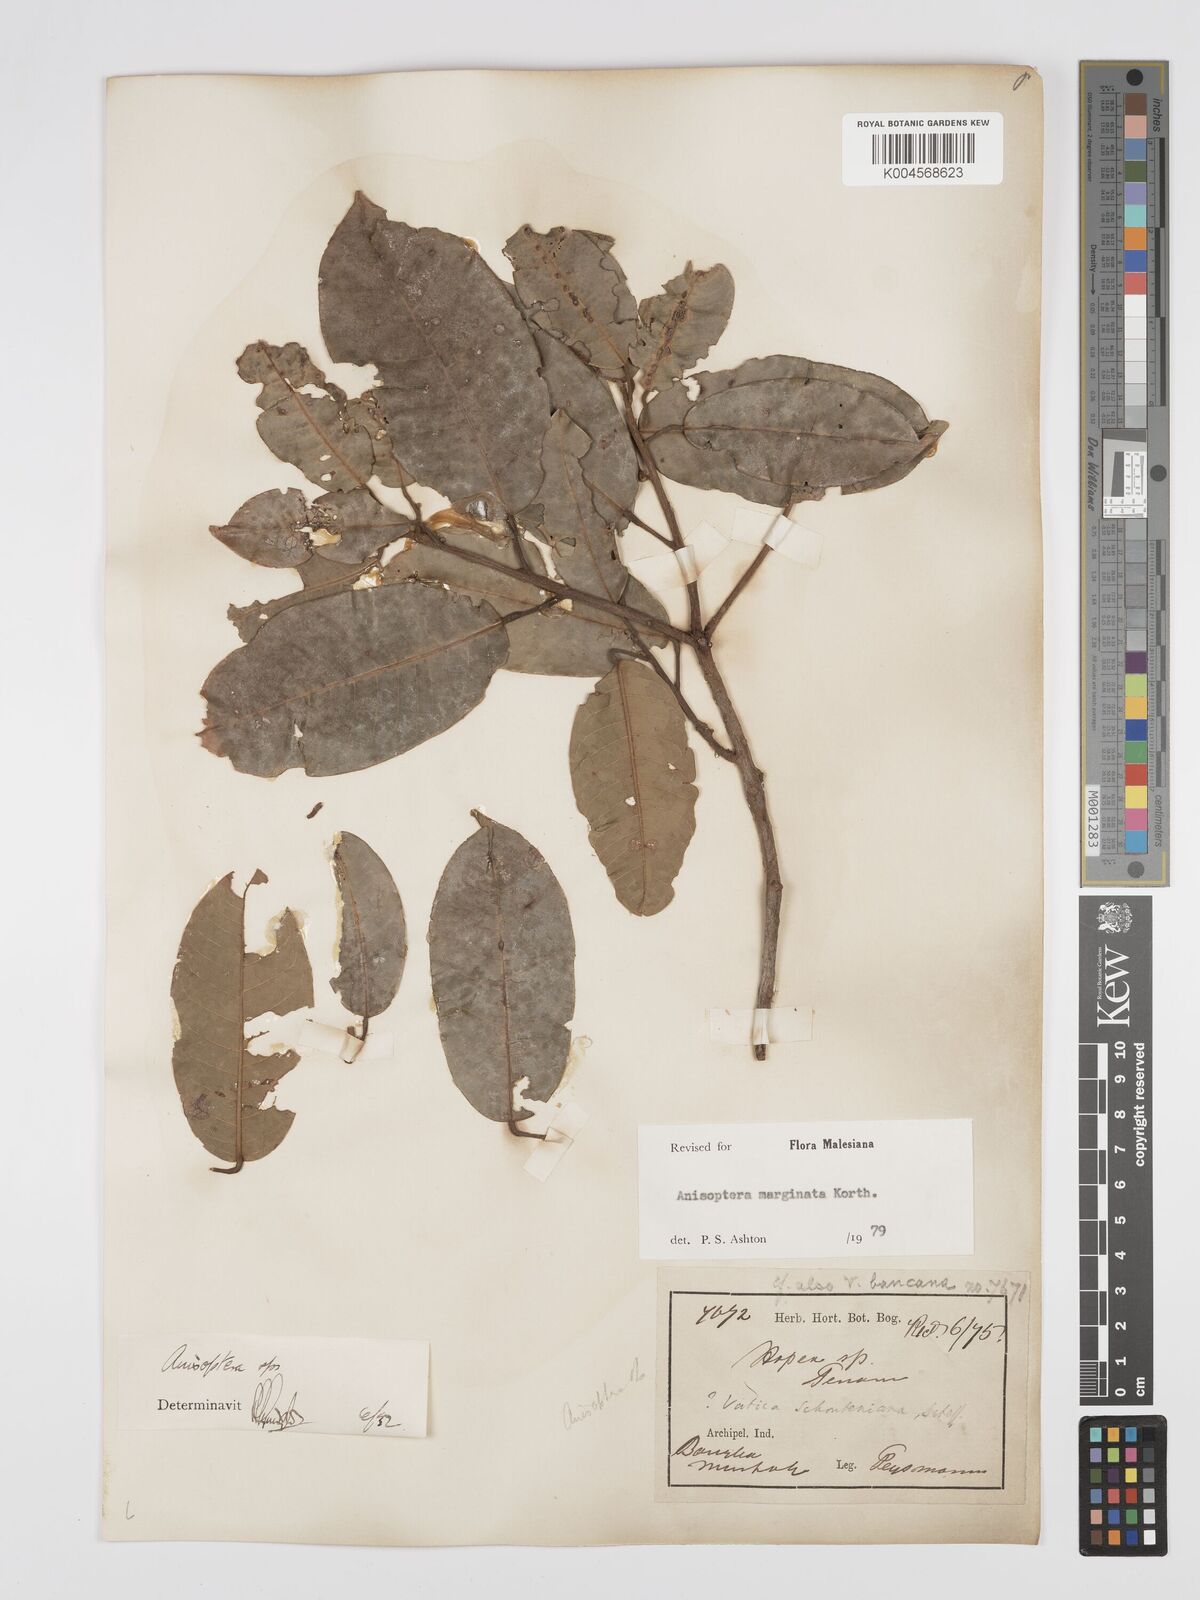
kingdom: Plantae
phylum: Tracheophyta
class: Magnoliopsida
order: Malvales
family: Dipterocarpaceae
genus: Anisoptera
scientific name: Anisoptera marginata
